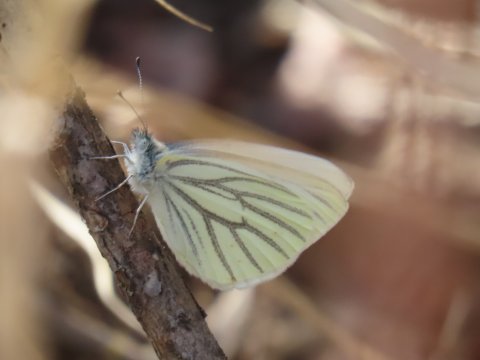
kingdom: Animalia
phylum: Arthropoda
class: Insecta
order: Lepidoptera
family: Pieridae
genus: Pieris
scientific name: Pieris oleracea
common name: Mustard White
